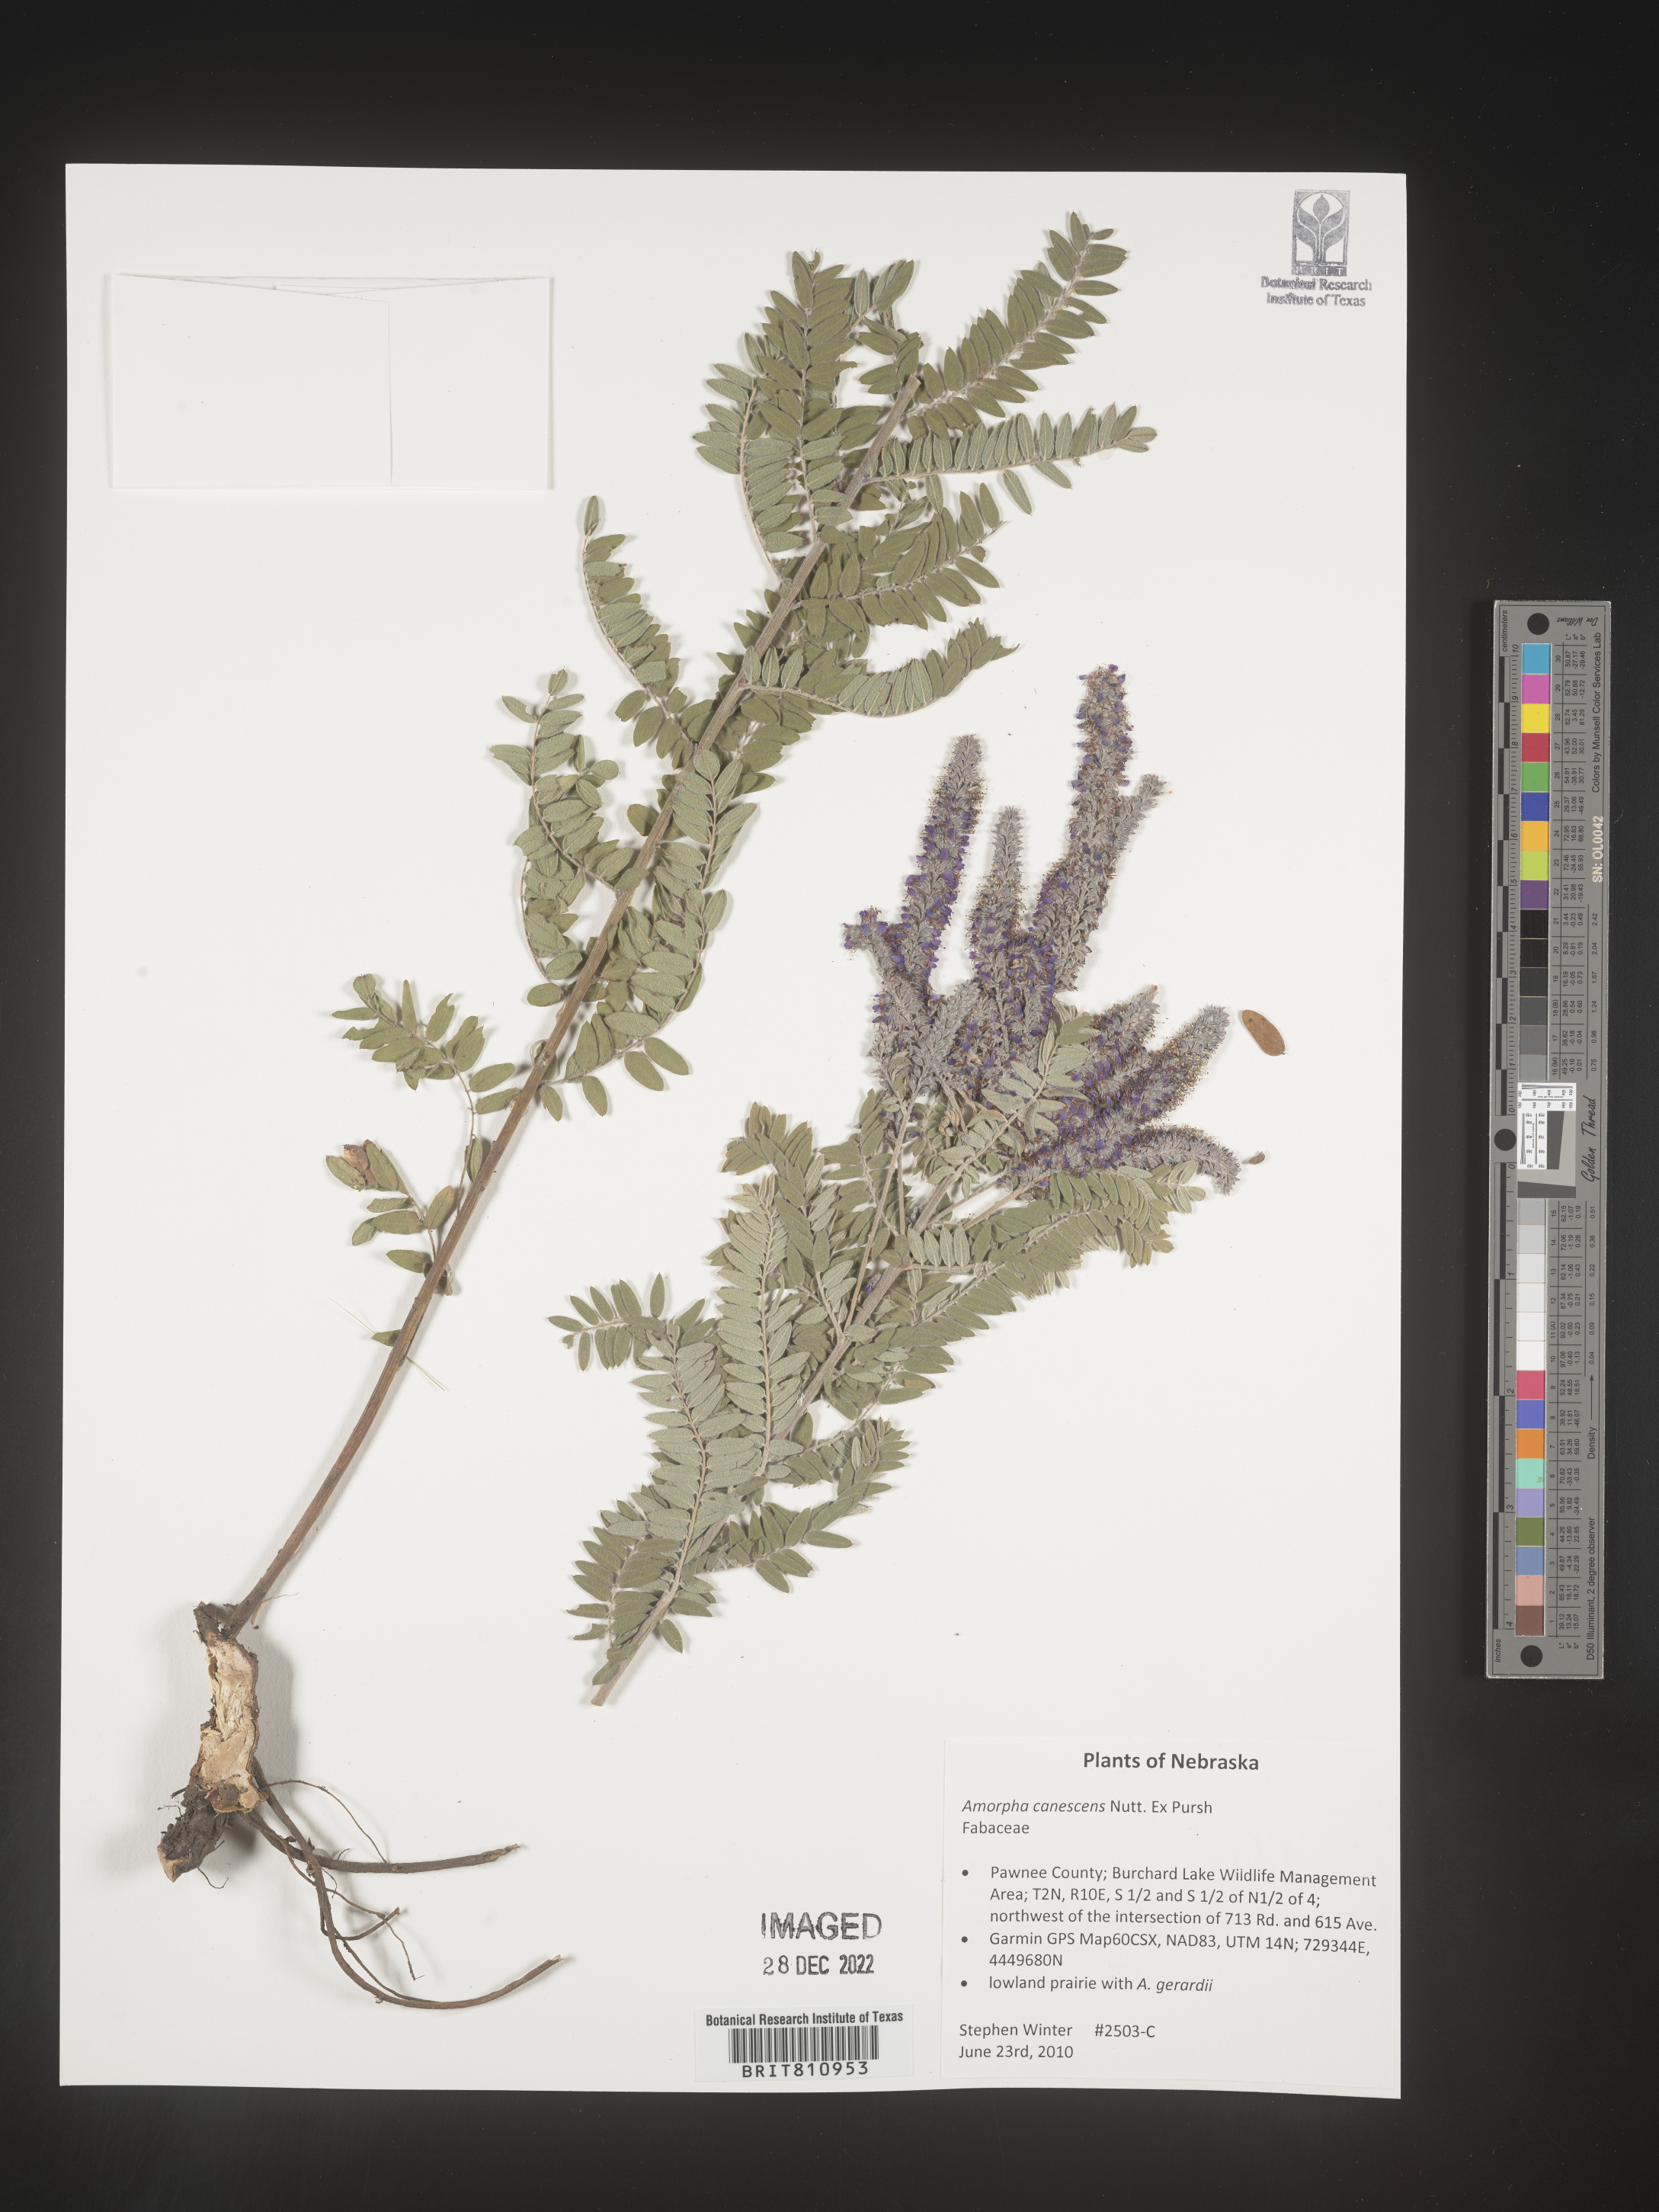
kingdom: Plantae
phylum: Tracheophyta
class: Magnoliopsida
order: Fabales
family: Fabaceae
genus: Amorpha
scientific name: Amorpha canescens
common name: Leadplant
